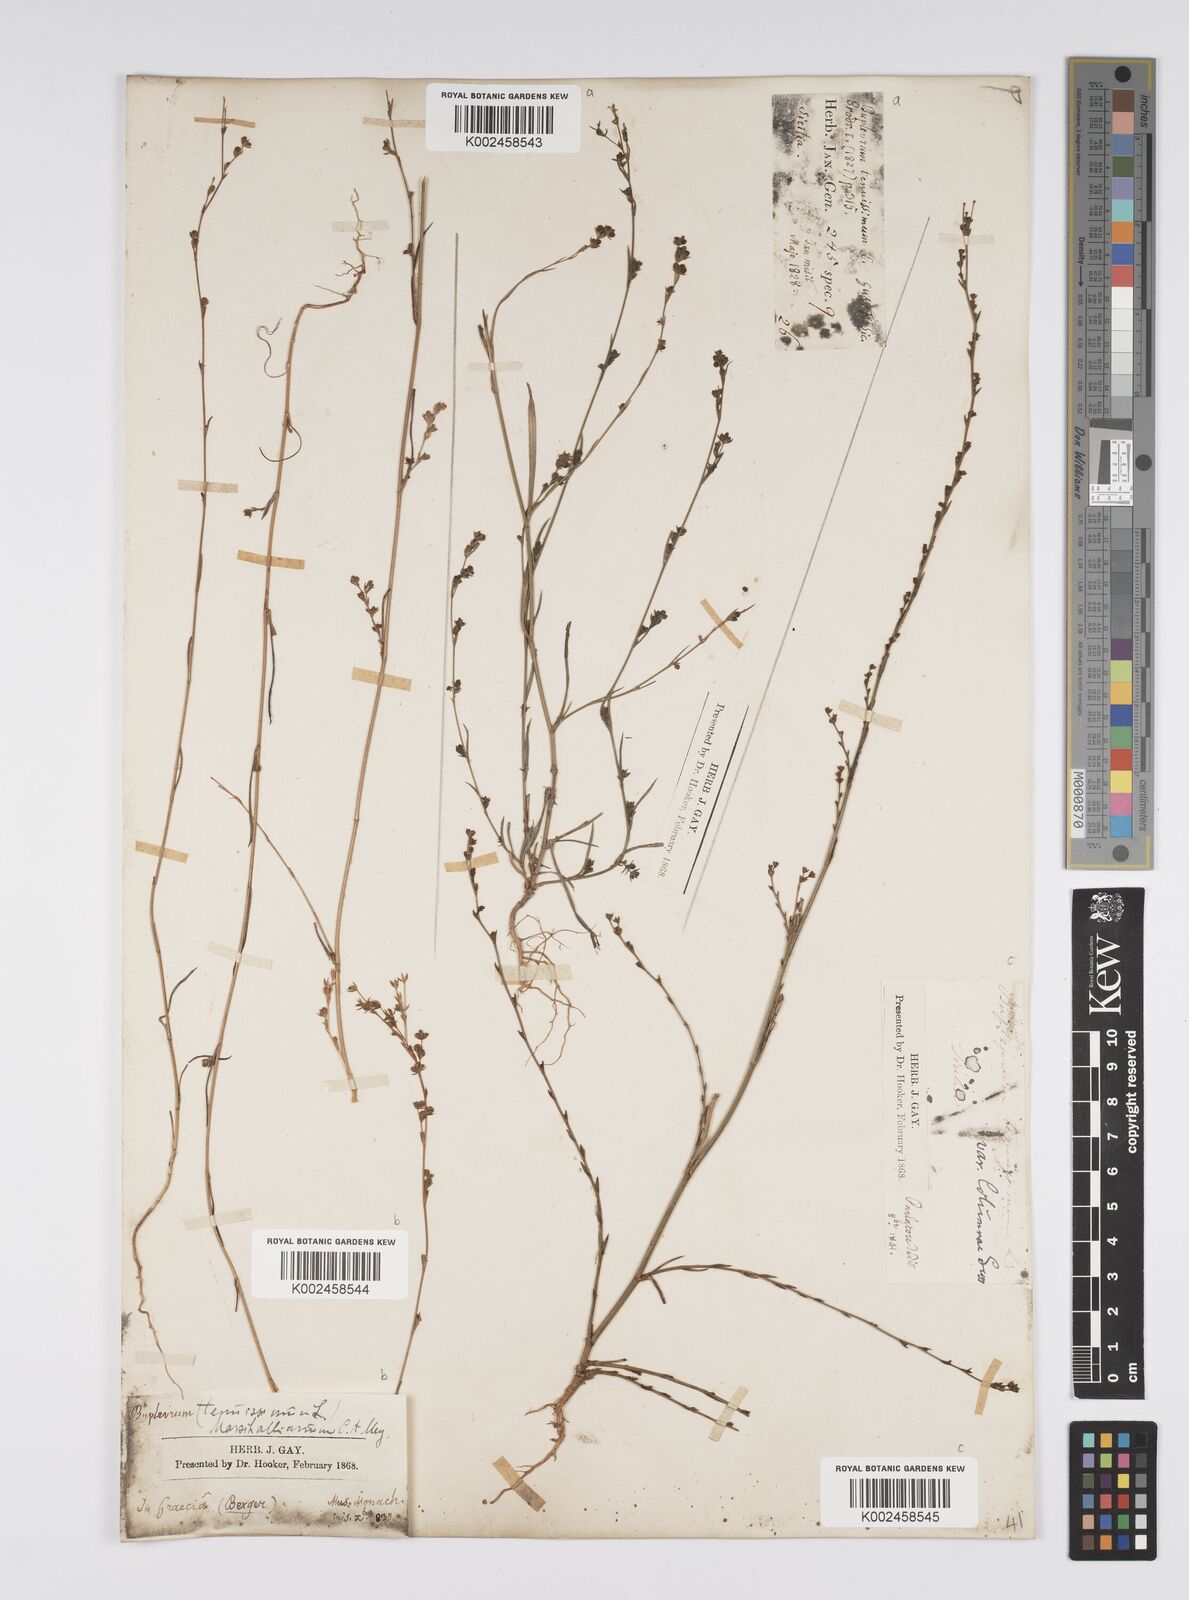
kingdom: Plantae
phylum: Tracheophyta
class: Magnoliopsida
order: Apiales
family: Apiaceae
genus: Bupleurum
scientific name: Bupleurum tenuissimum
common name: Slender hare's-ear
